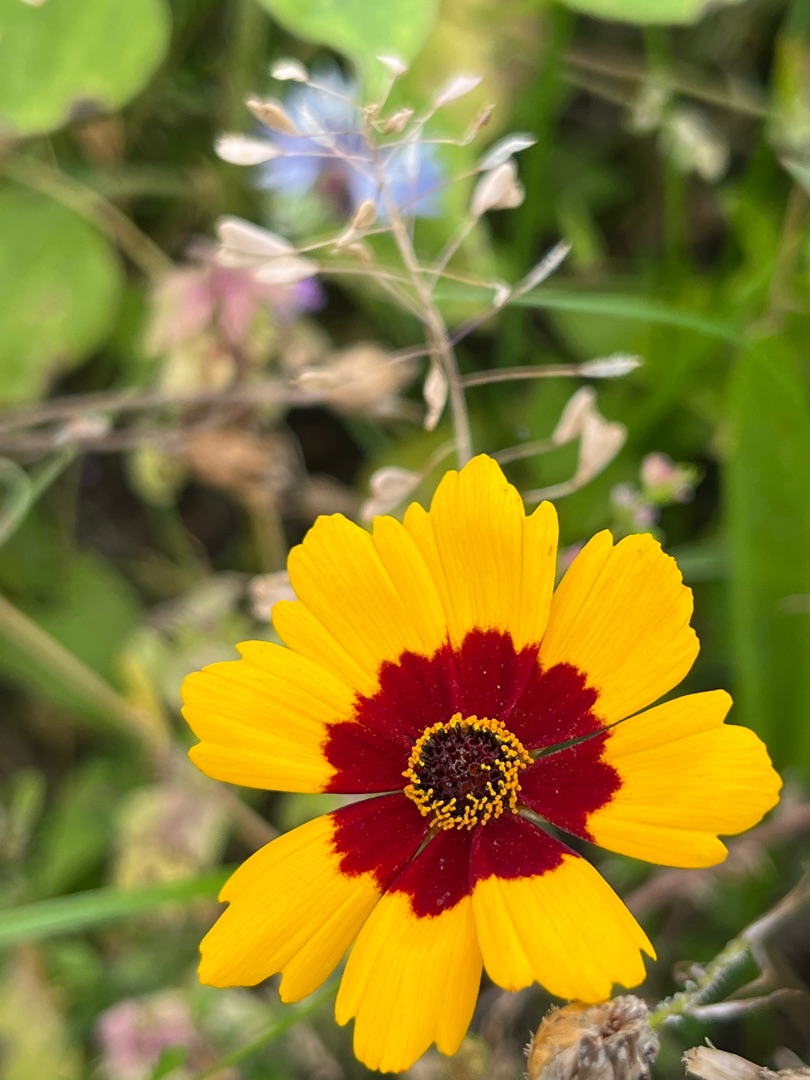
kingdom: Plantae
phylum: Tracheophyta
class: Magnoliopsida
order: Asterales
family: Asteraceae
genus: Coreopsis
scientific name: Coreopsis tinctoria
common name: Skønhedsøje
